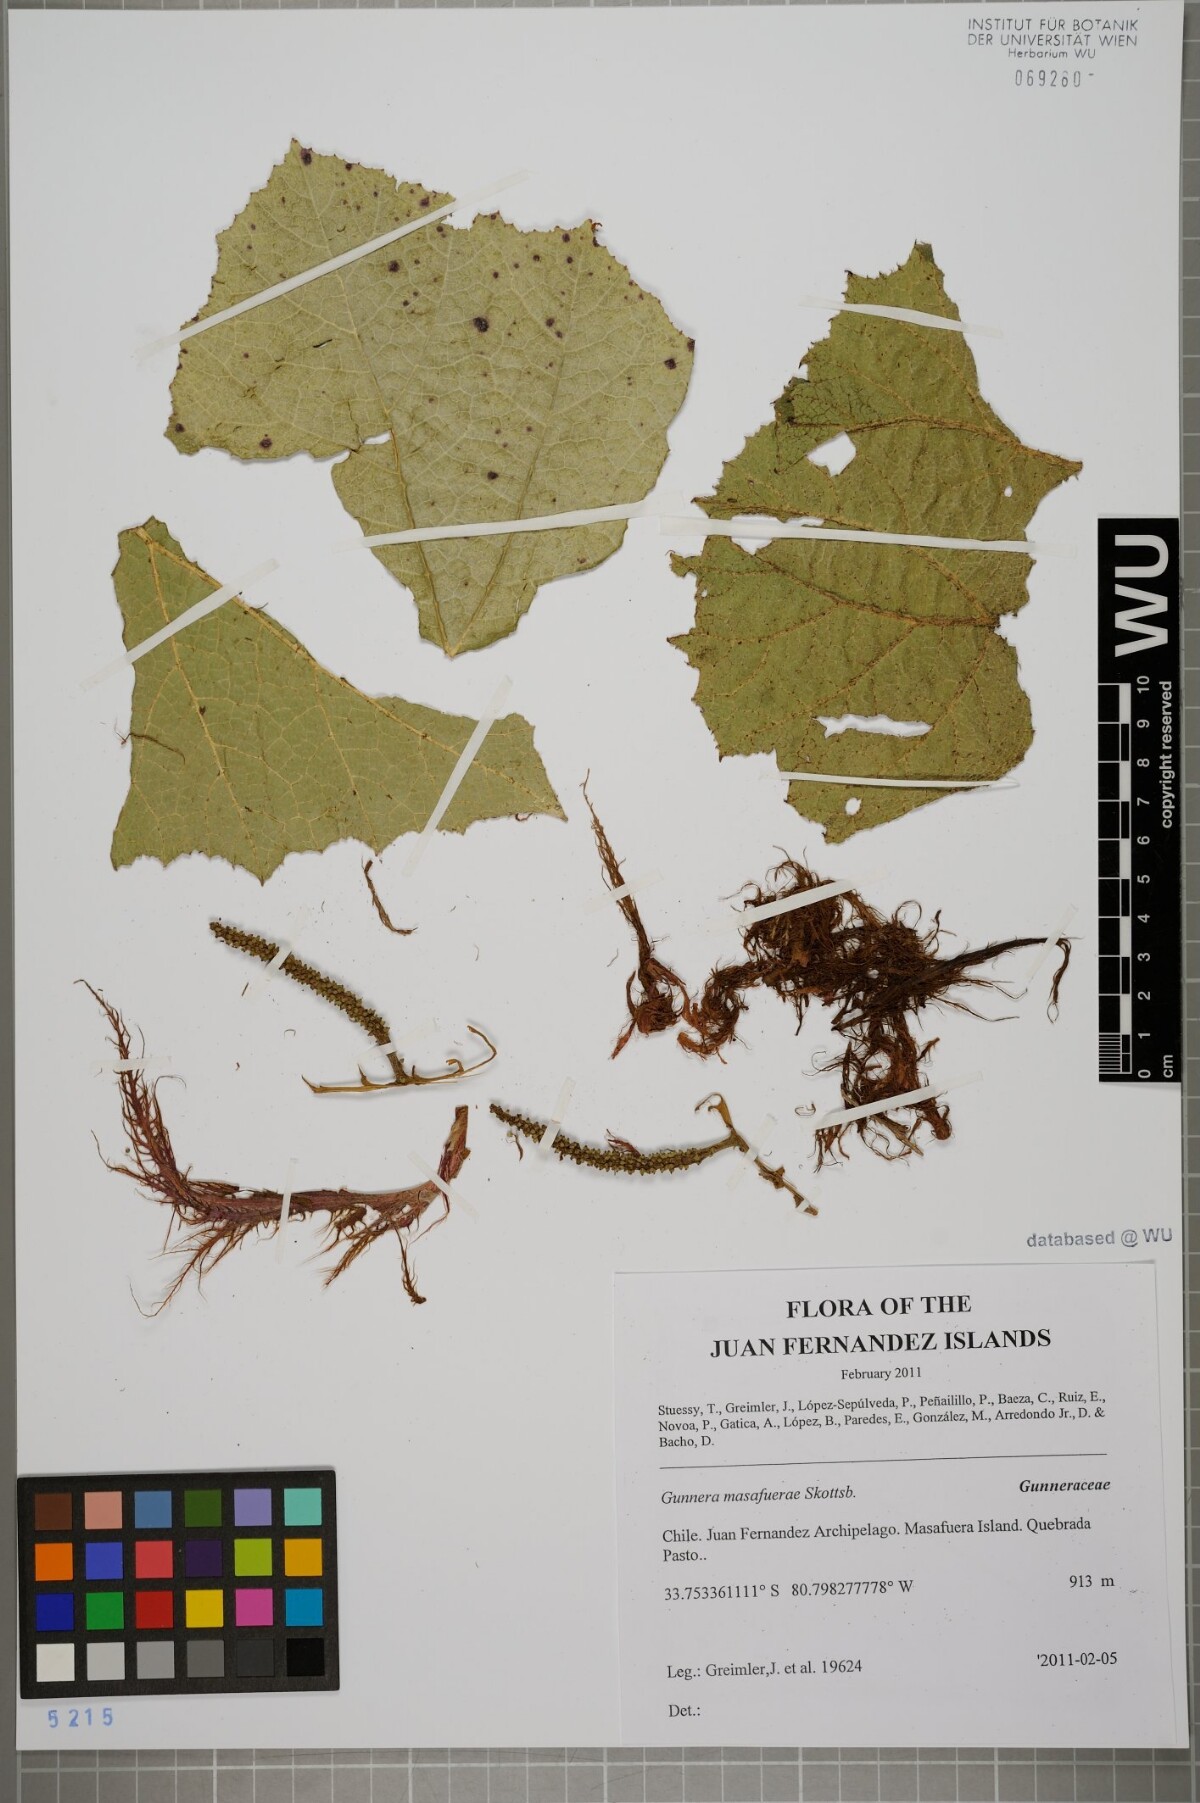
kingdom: Plantae
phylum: Tracheophyta
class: Magnoliopsida
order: Gunnerales
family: Gunneraceae
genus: Gunnera
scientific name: Gunnera masafuerae
